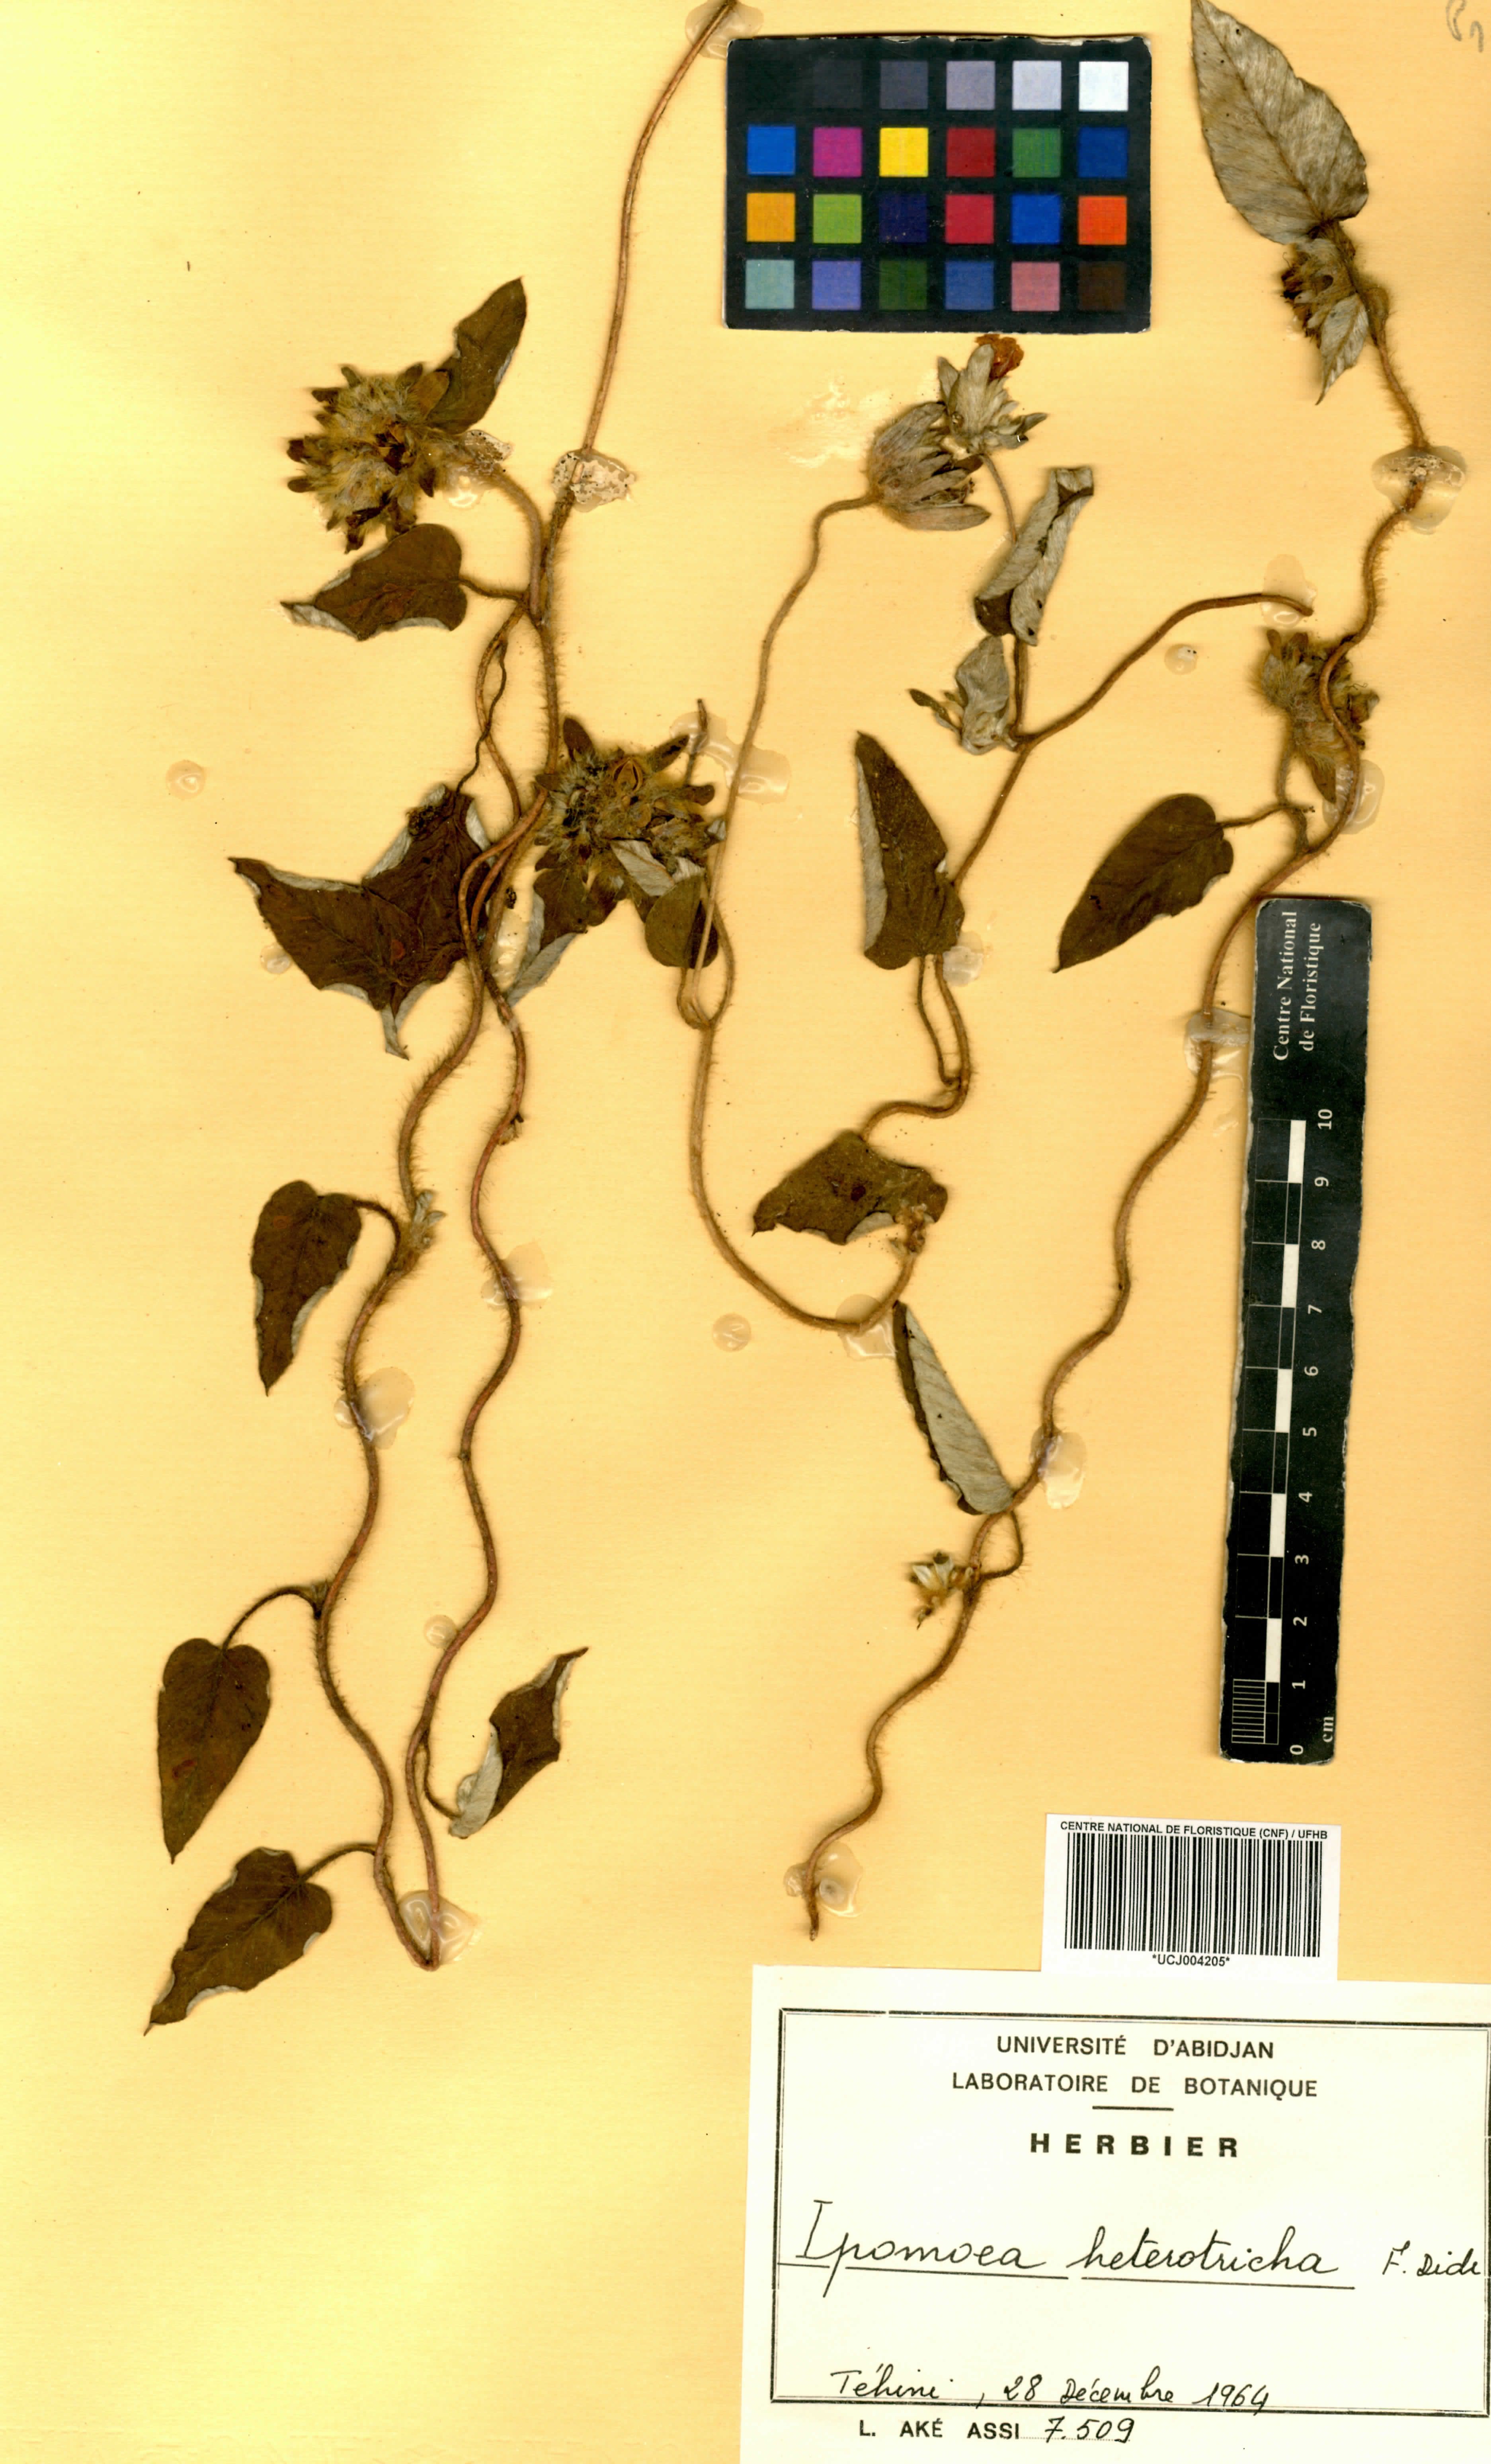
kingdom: Plantae
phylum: Tracheophyta
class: Magnoliopsida
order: Solanales
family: Convolvulaceae
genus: Ipomoea
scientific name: Ipomoea heterotricha
